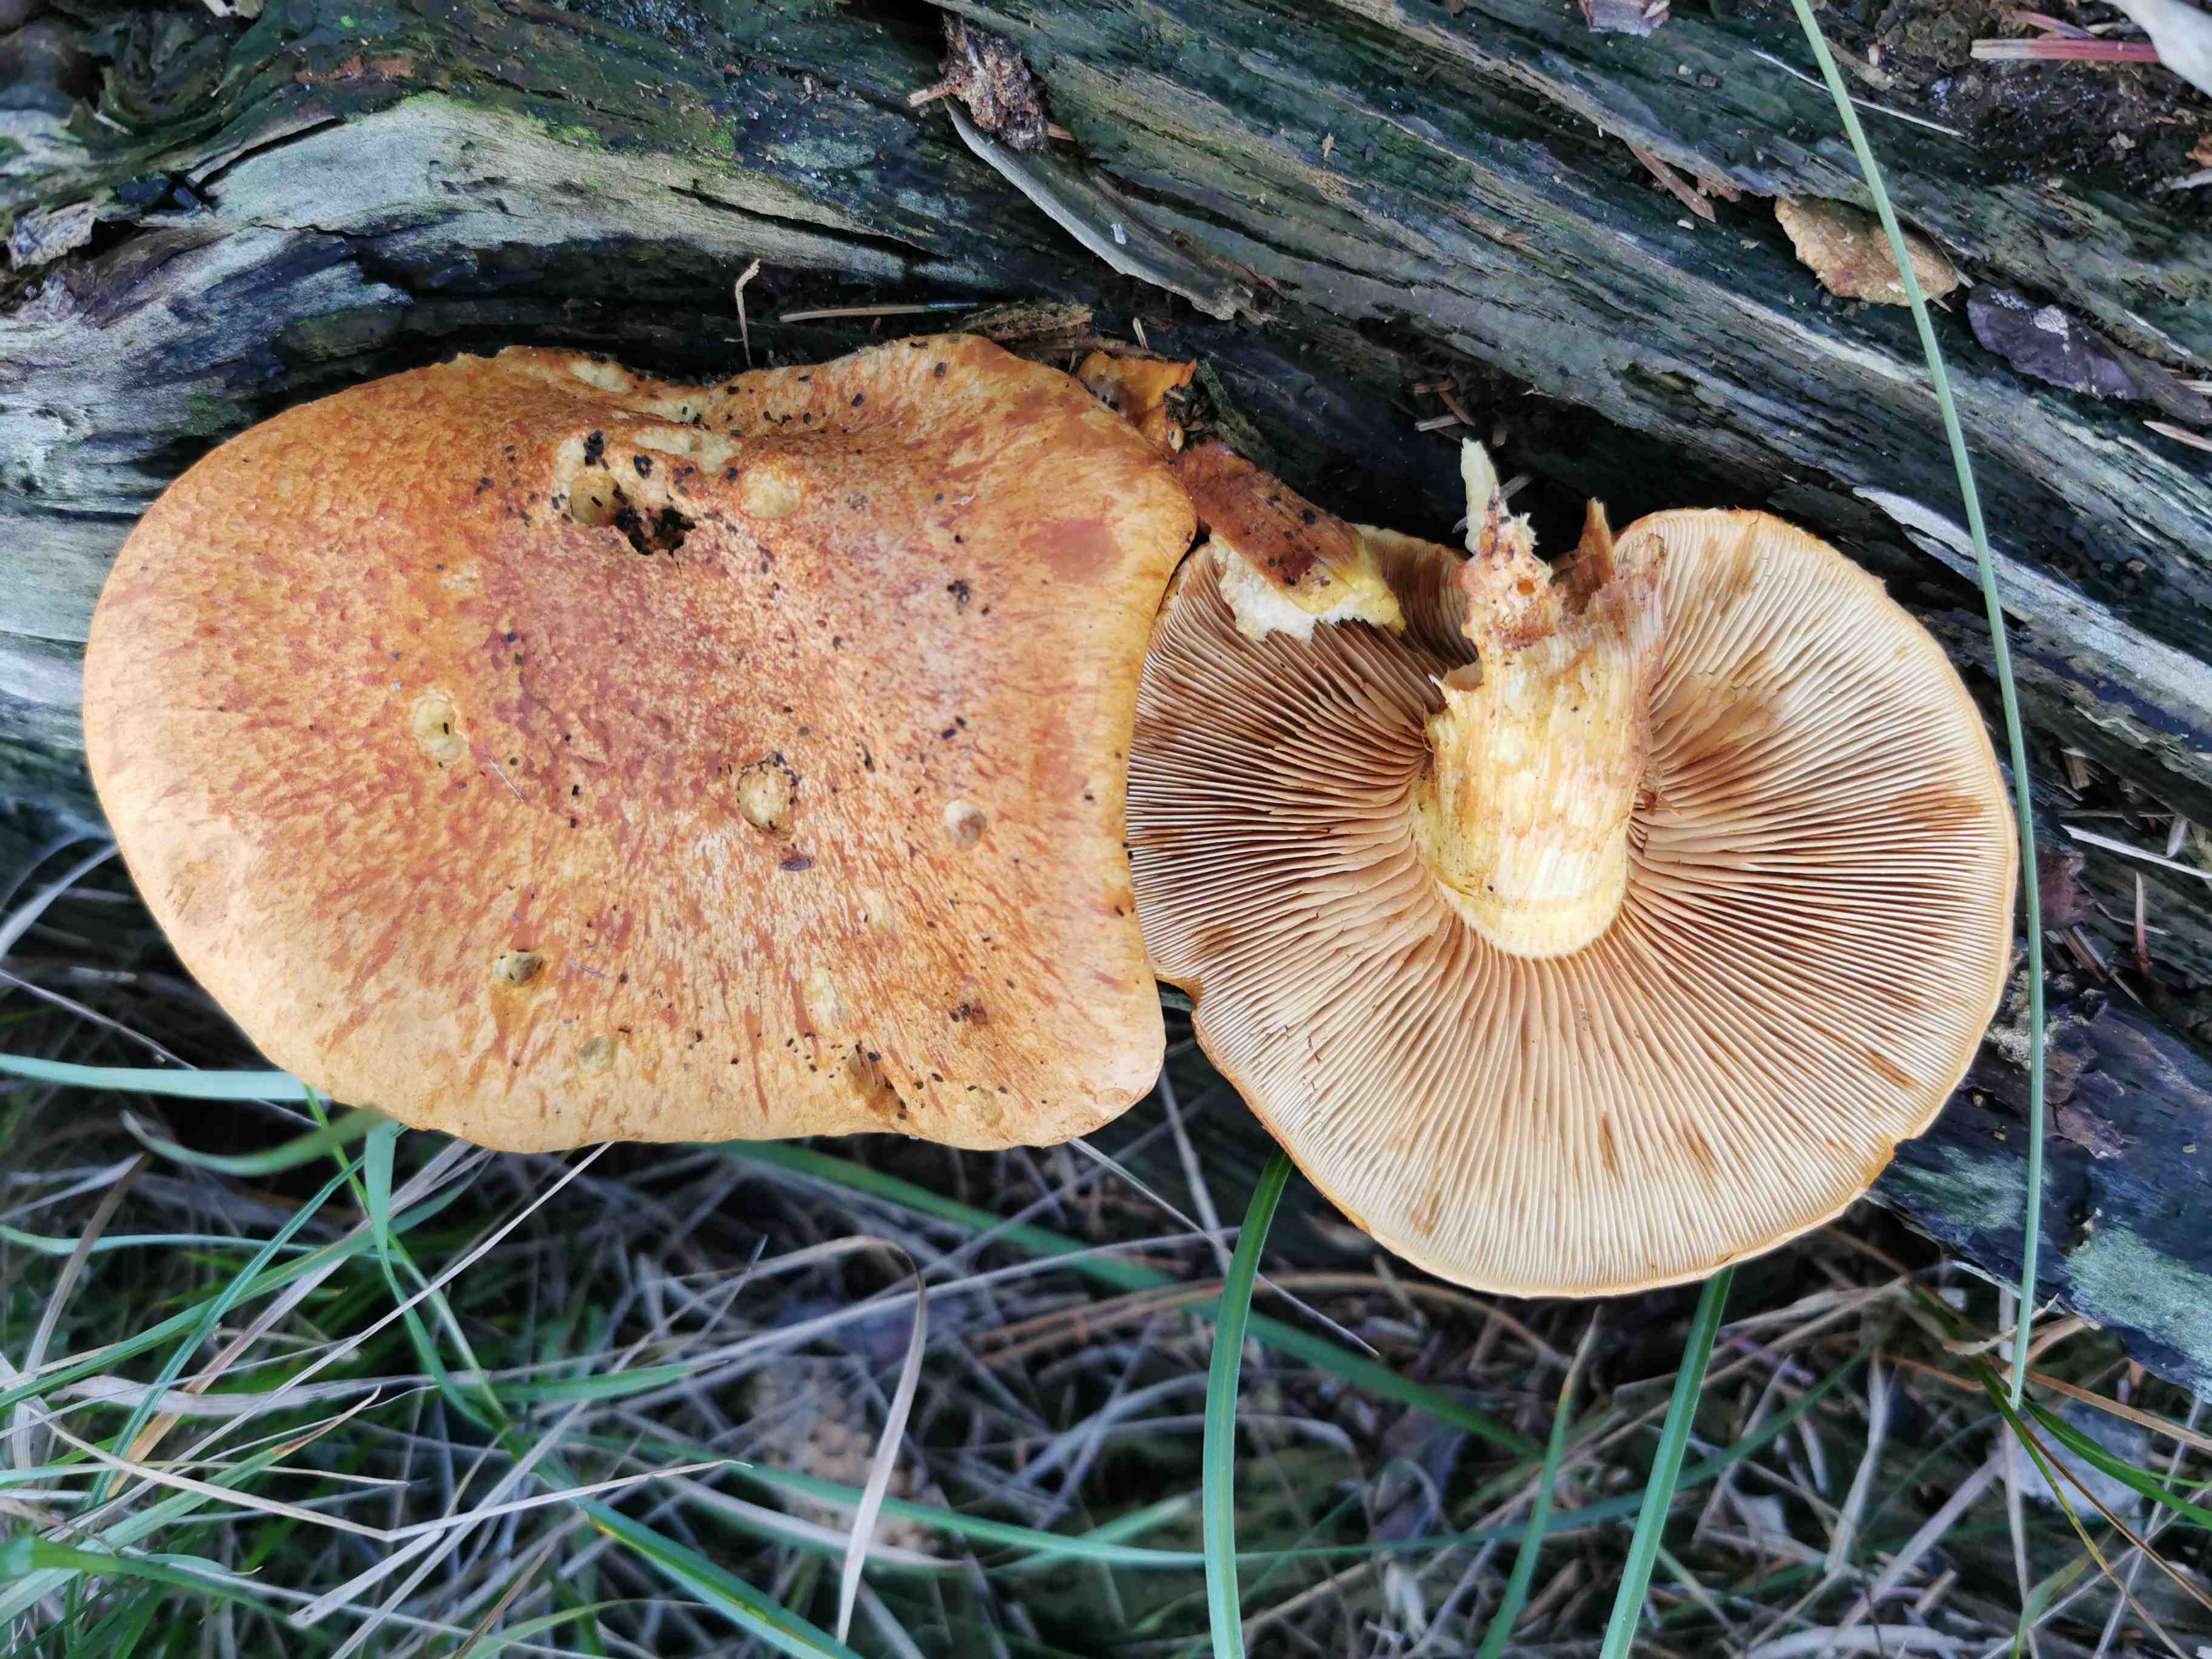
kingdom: Fungi
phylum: Basidiomycota
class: Agaricomycetes
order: Agaricales
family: Hymenogastraceae
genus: Gymnopilus
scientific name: Gymnopilus spectabilis
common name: fibret flammehat
